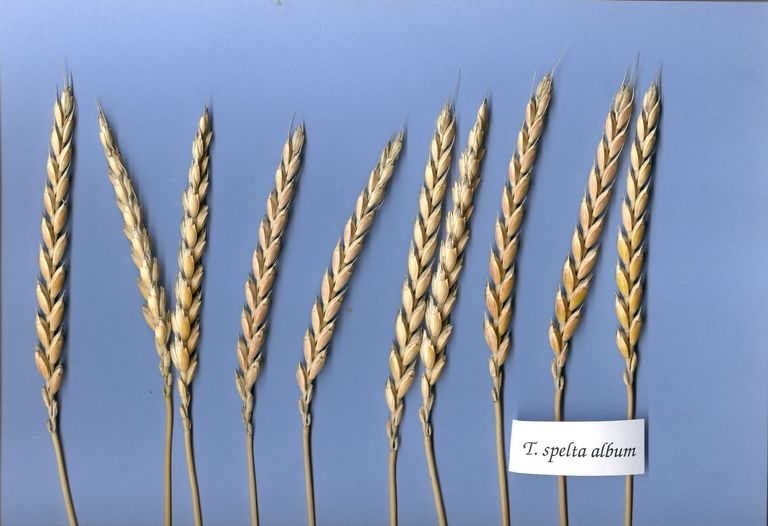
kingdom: Plantae
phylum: Tracheophyta
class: Liliopsida
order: Poales
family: Poaceae
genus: Triticum
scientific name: Triticum aestivum
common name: Common wheat
